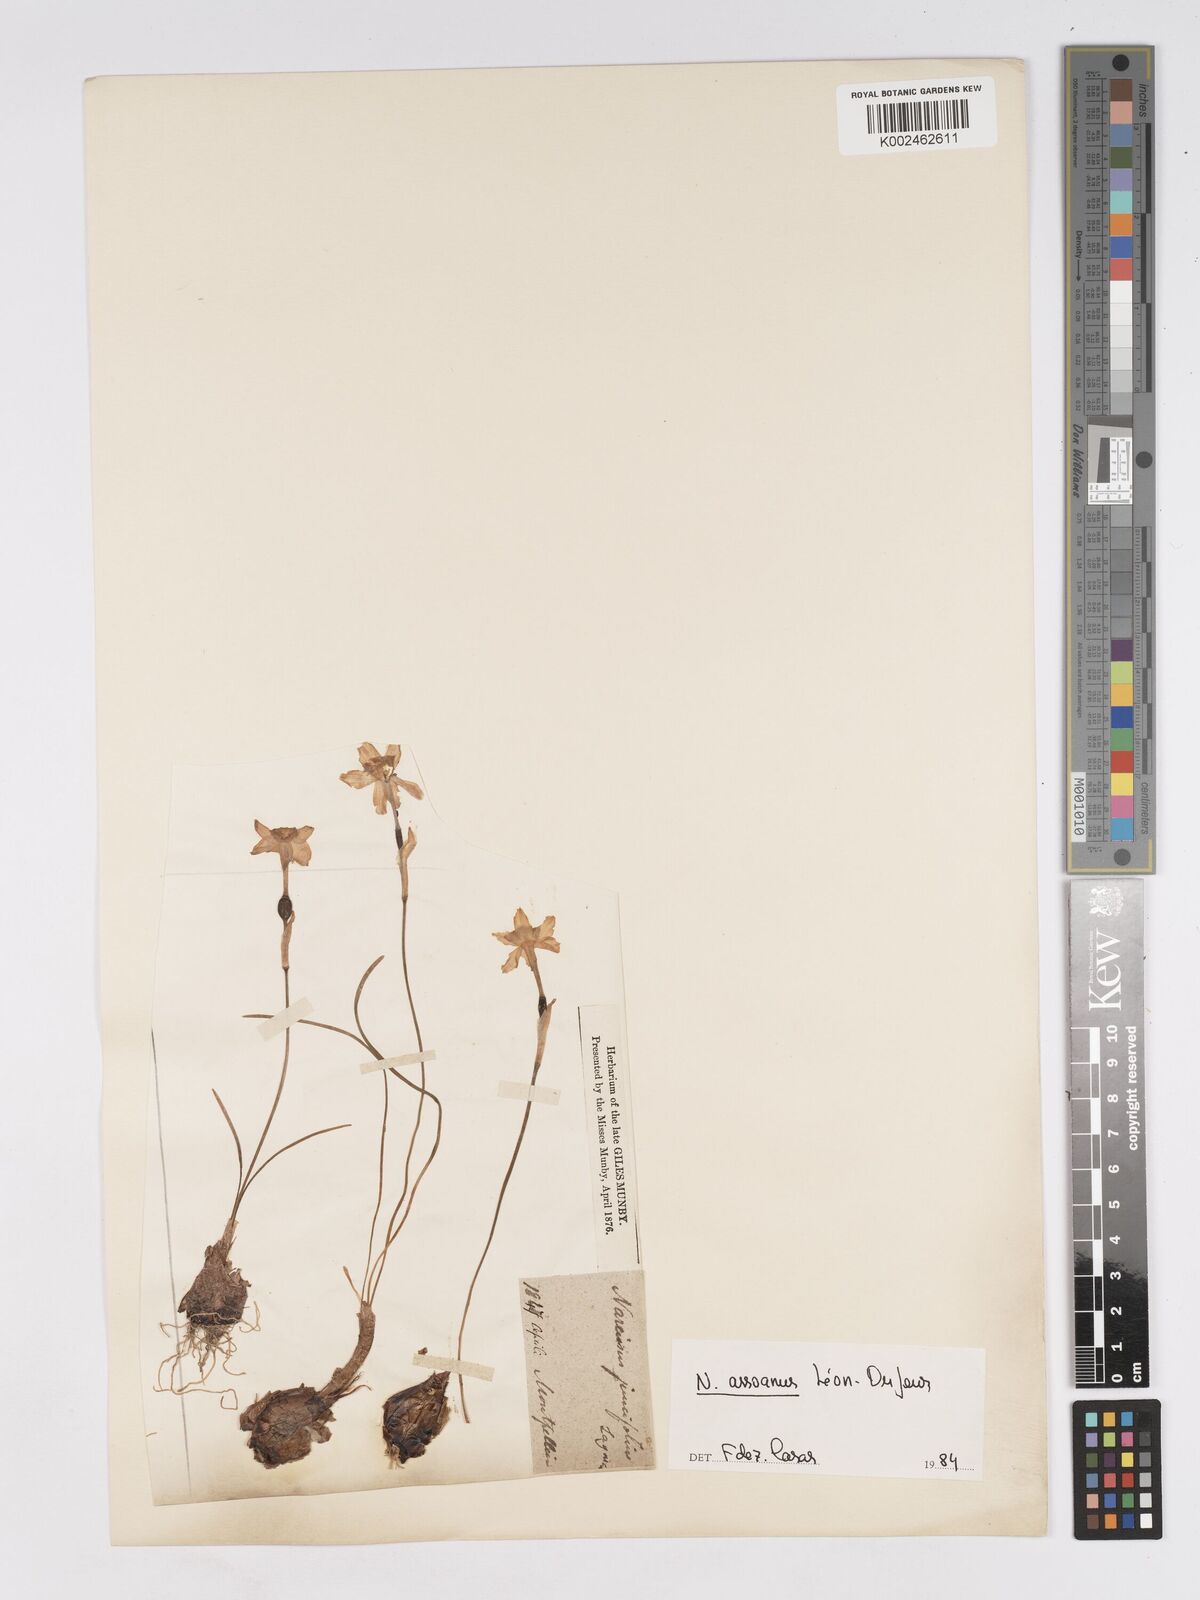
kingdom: Plantae
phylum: Tracheophyta
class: Liliopsida
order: Asparagales
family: Amaryllidaceae
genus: Narcissus
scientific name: Narcissus assoanus
